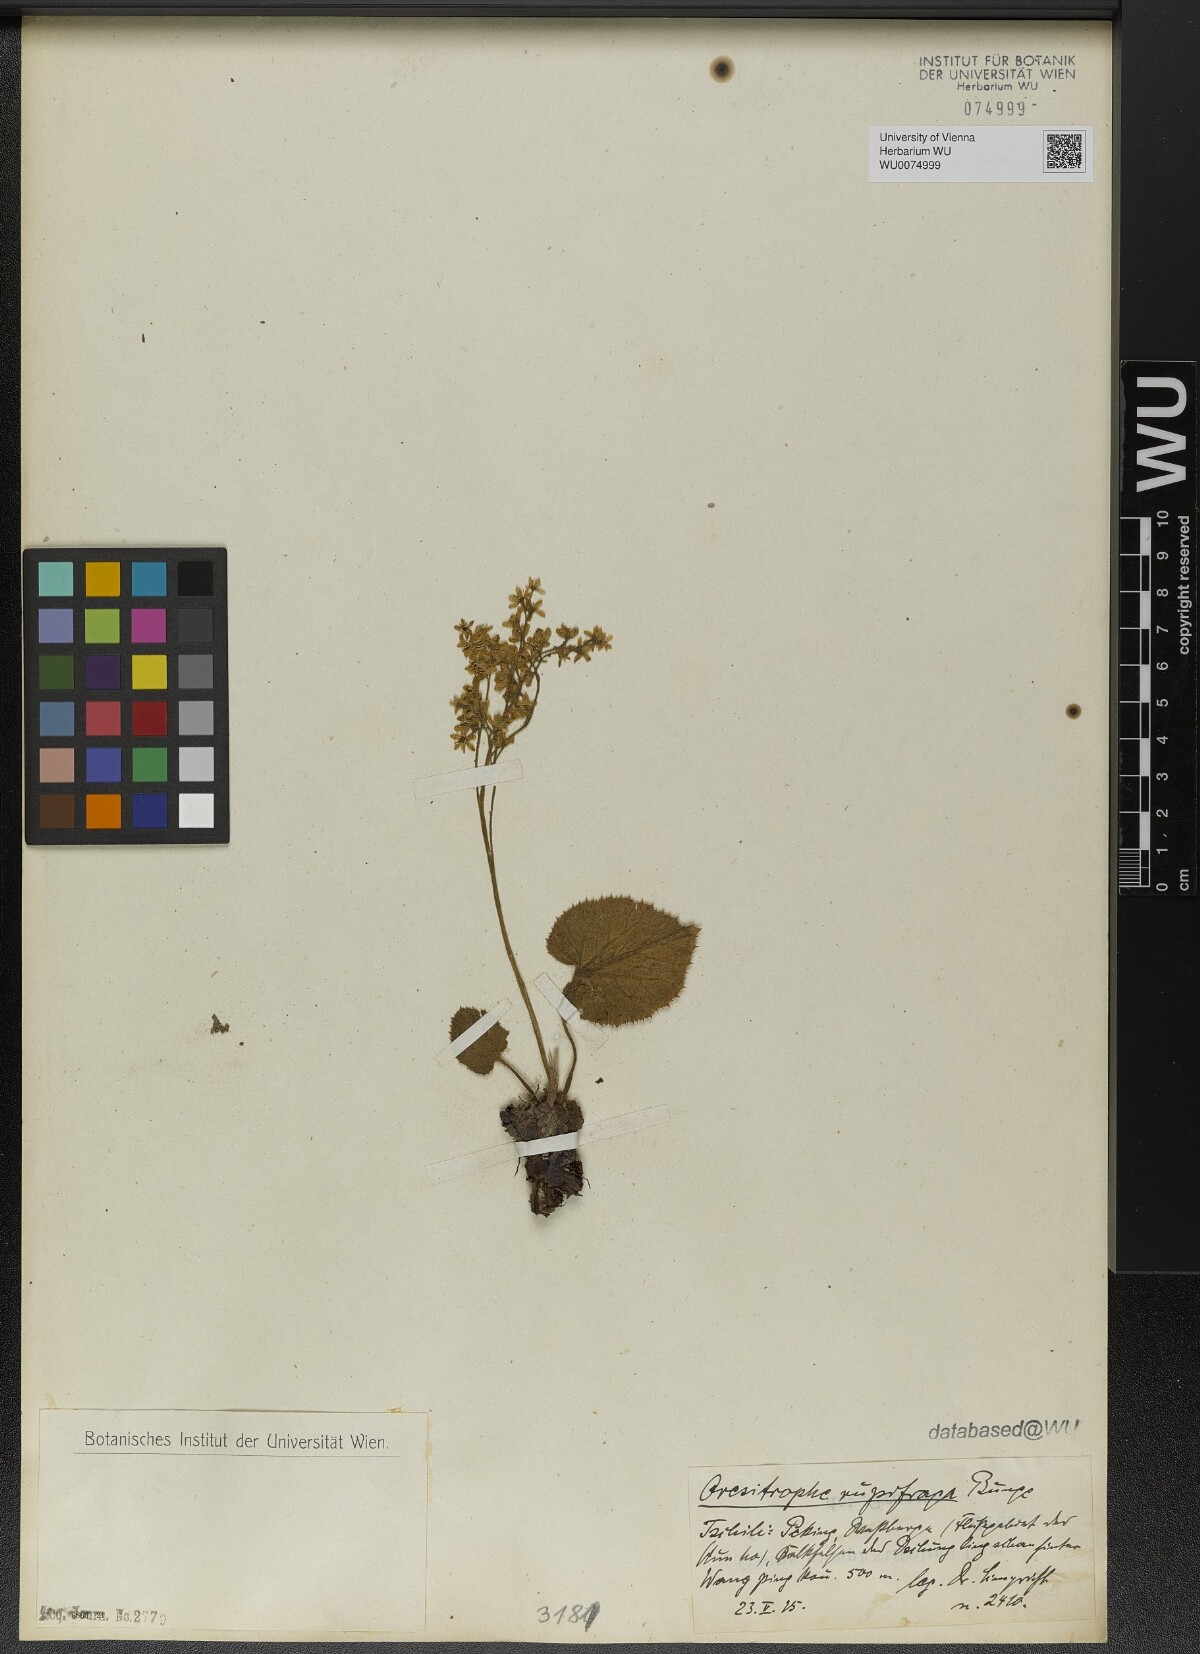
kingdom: Plantae
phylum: Tracheophyta
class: Magnoliopsida
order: Saxifragales
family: Saxifragaceae
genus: Oresitrophe
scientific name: Oresitrophe rupifraga
